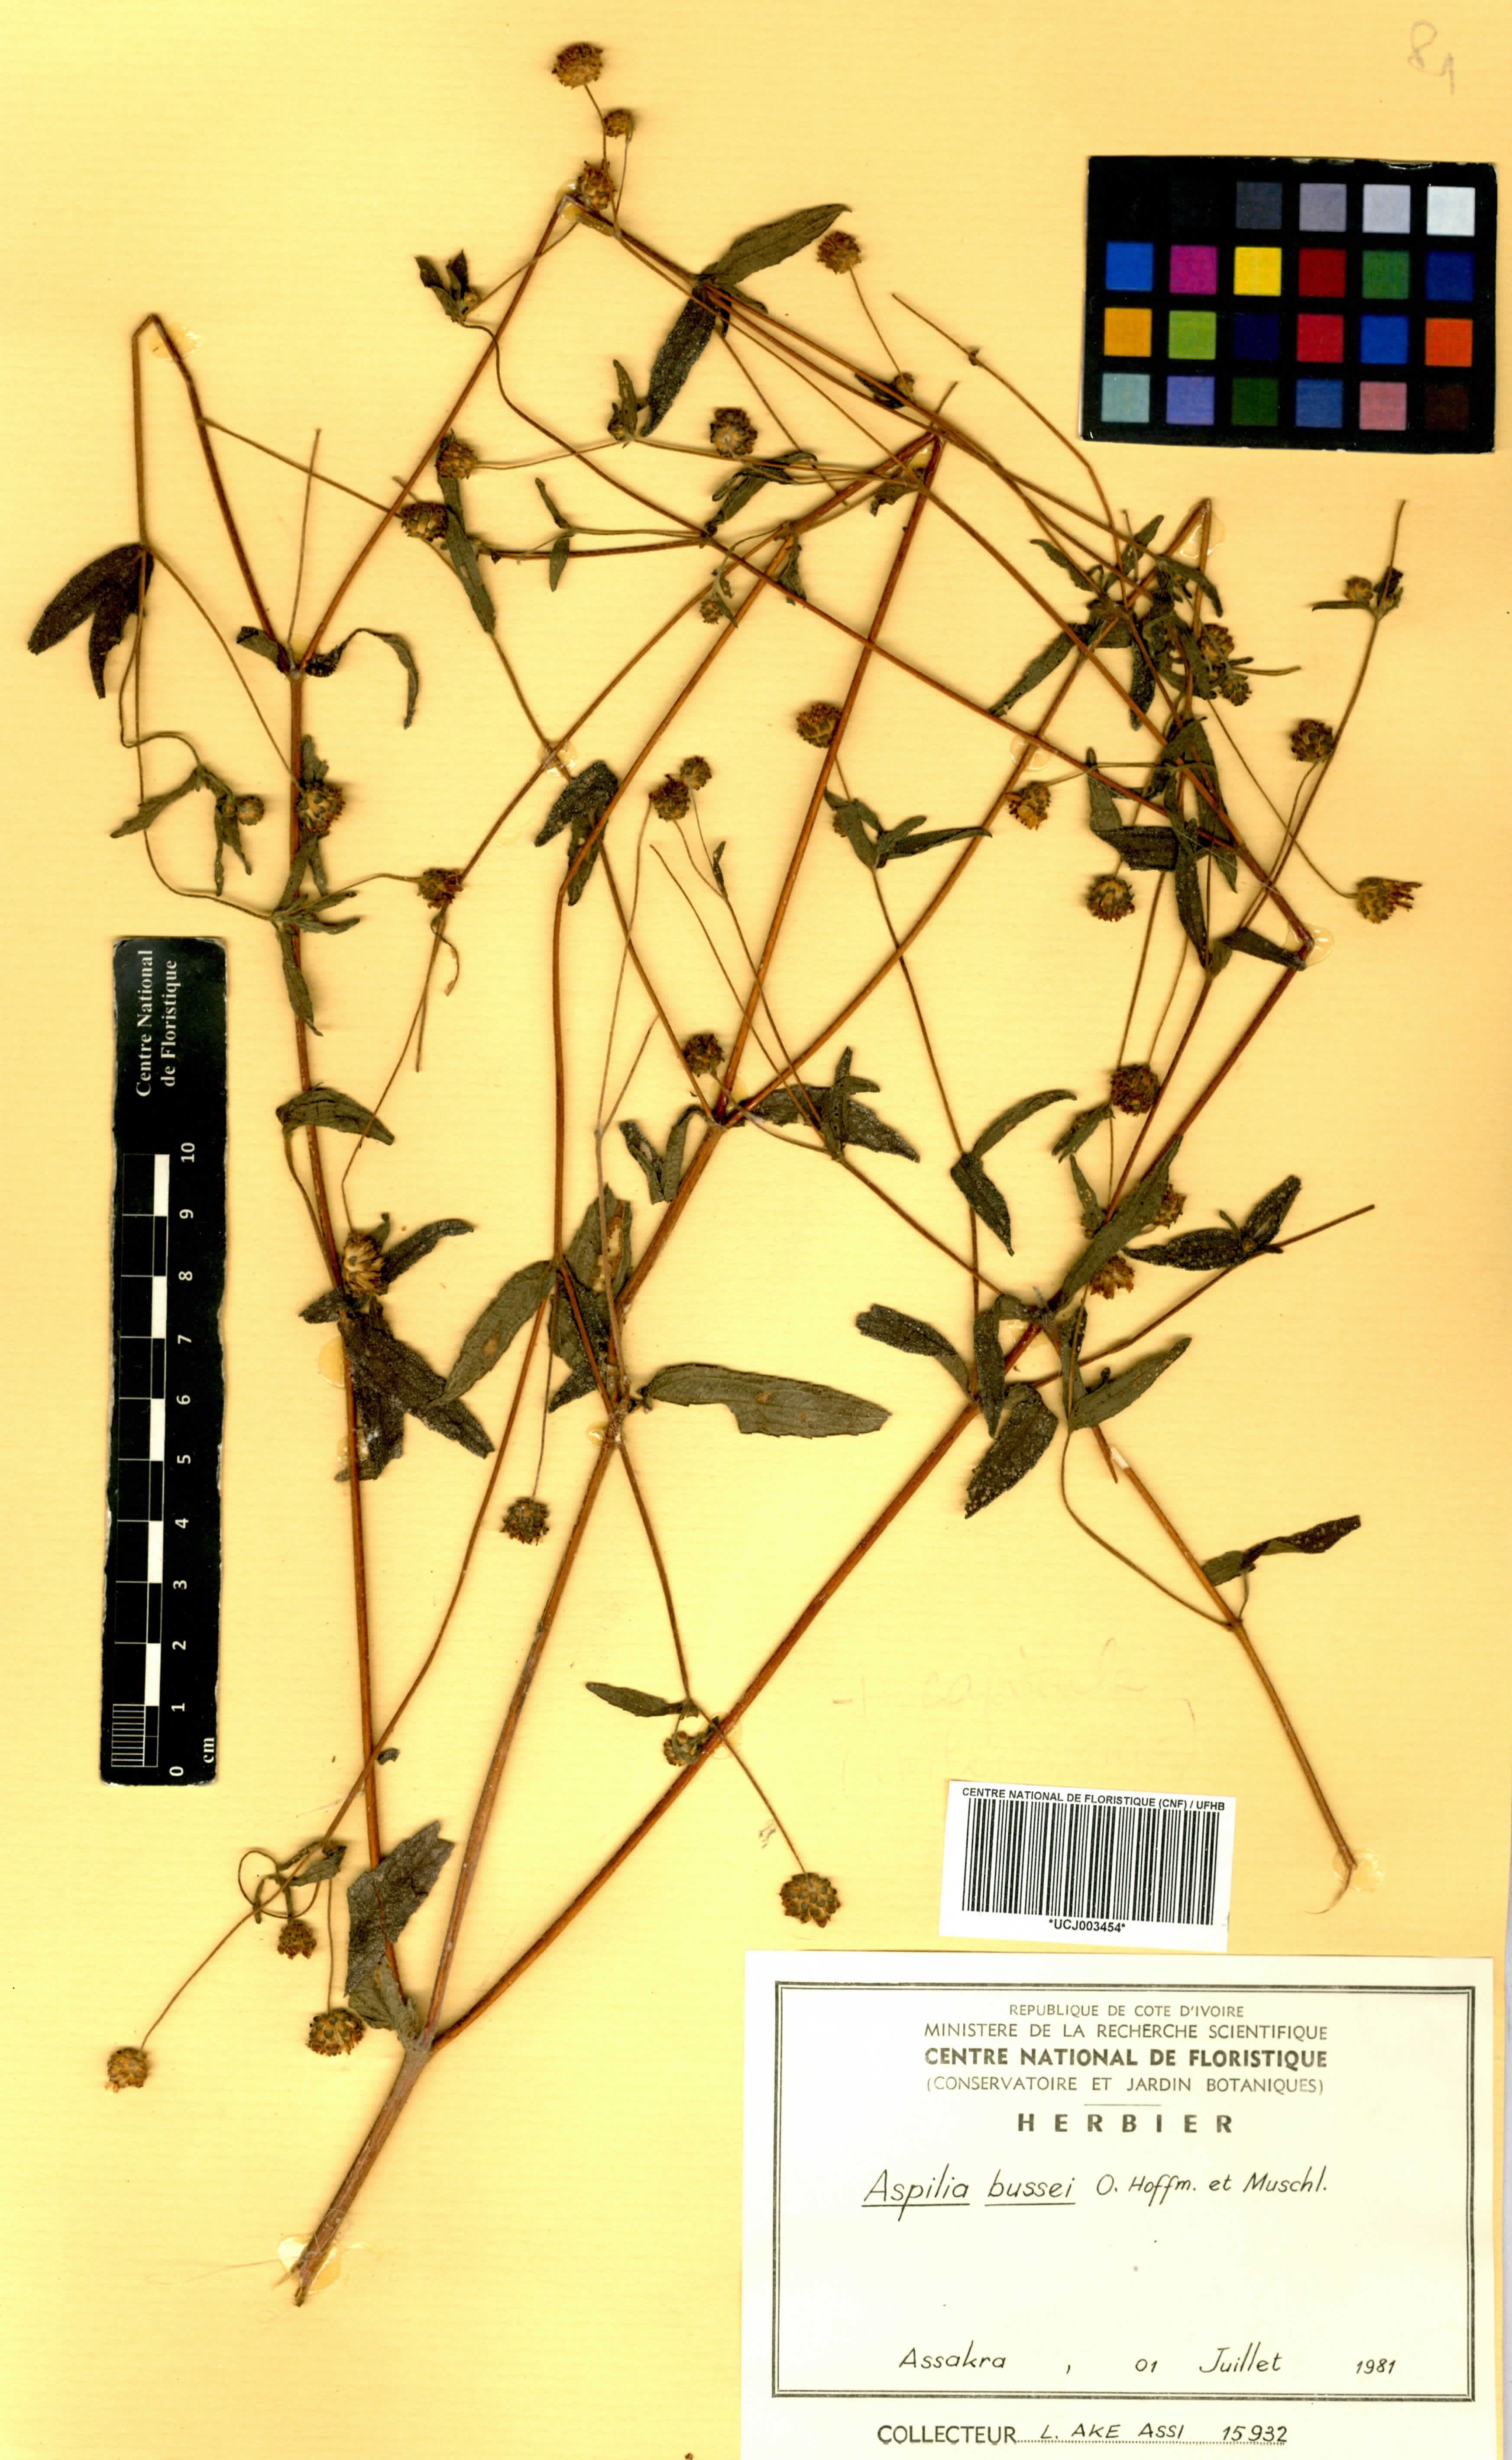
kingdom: Plantae
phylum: Tracheophyta
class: Magnoliopsida
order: Asterales
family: Asteraceae
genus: Aspilia
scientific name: Aspilia bussei
